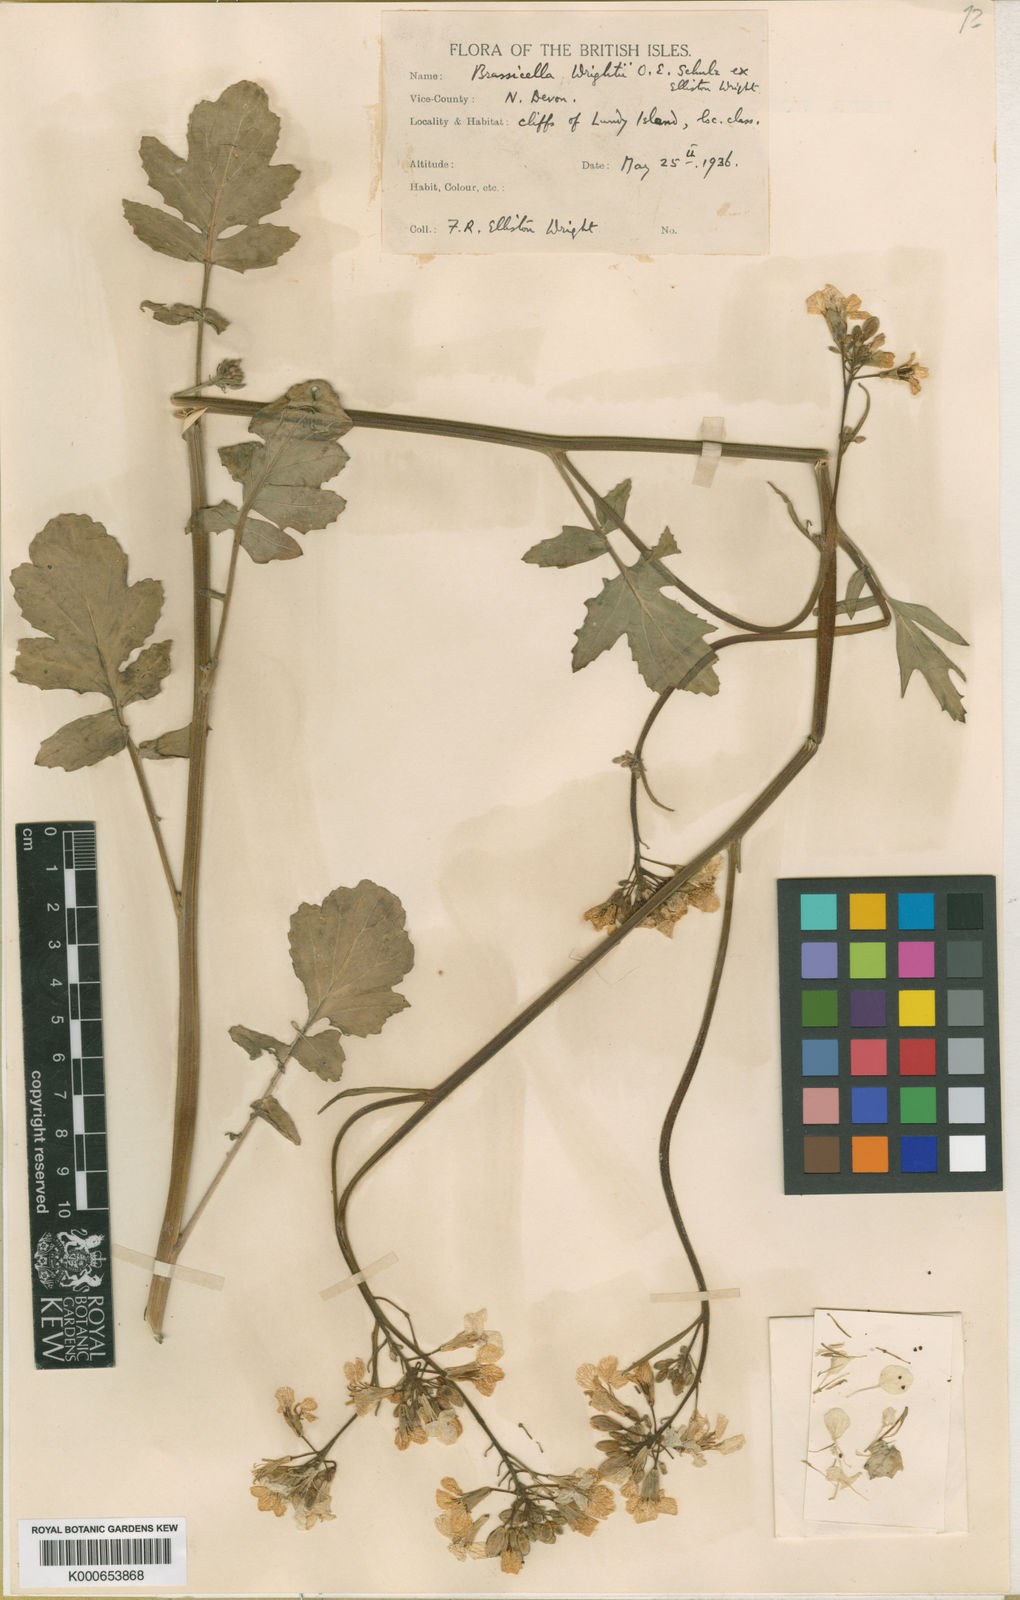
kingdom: Plantae
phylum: Tracheophyta
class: Magnoliopsida
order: Brassicales
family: Brassicaceae
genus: Coincya
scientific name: Coincya wrightii
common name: Lundy cabbage
